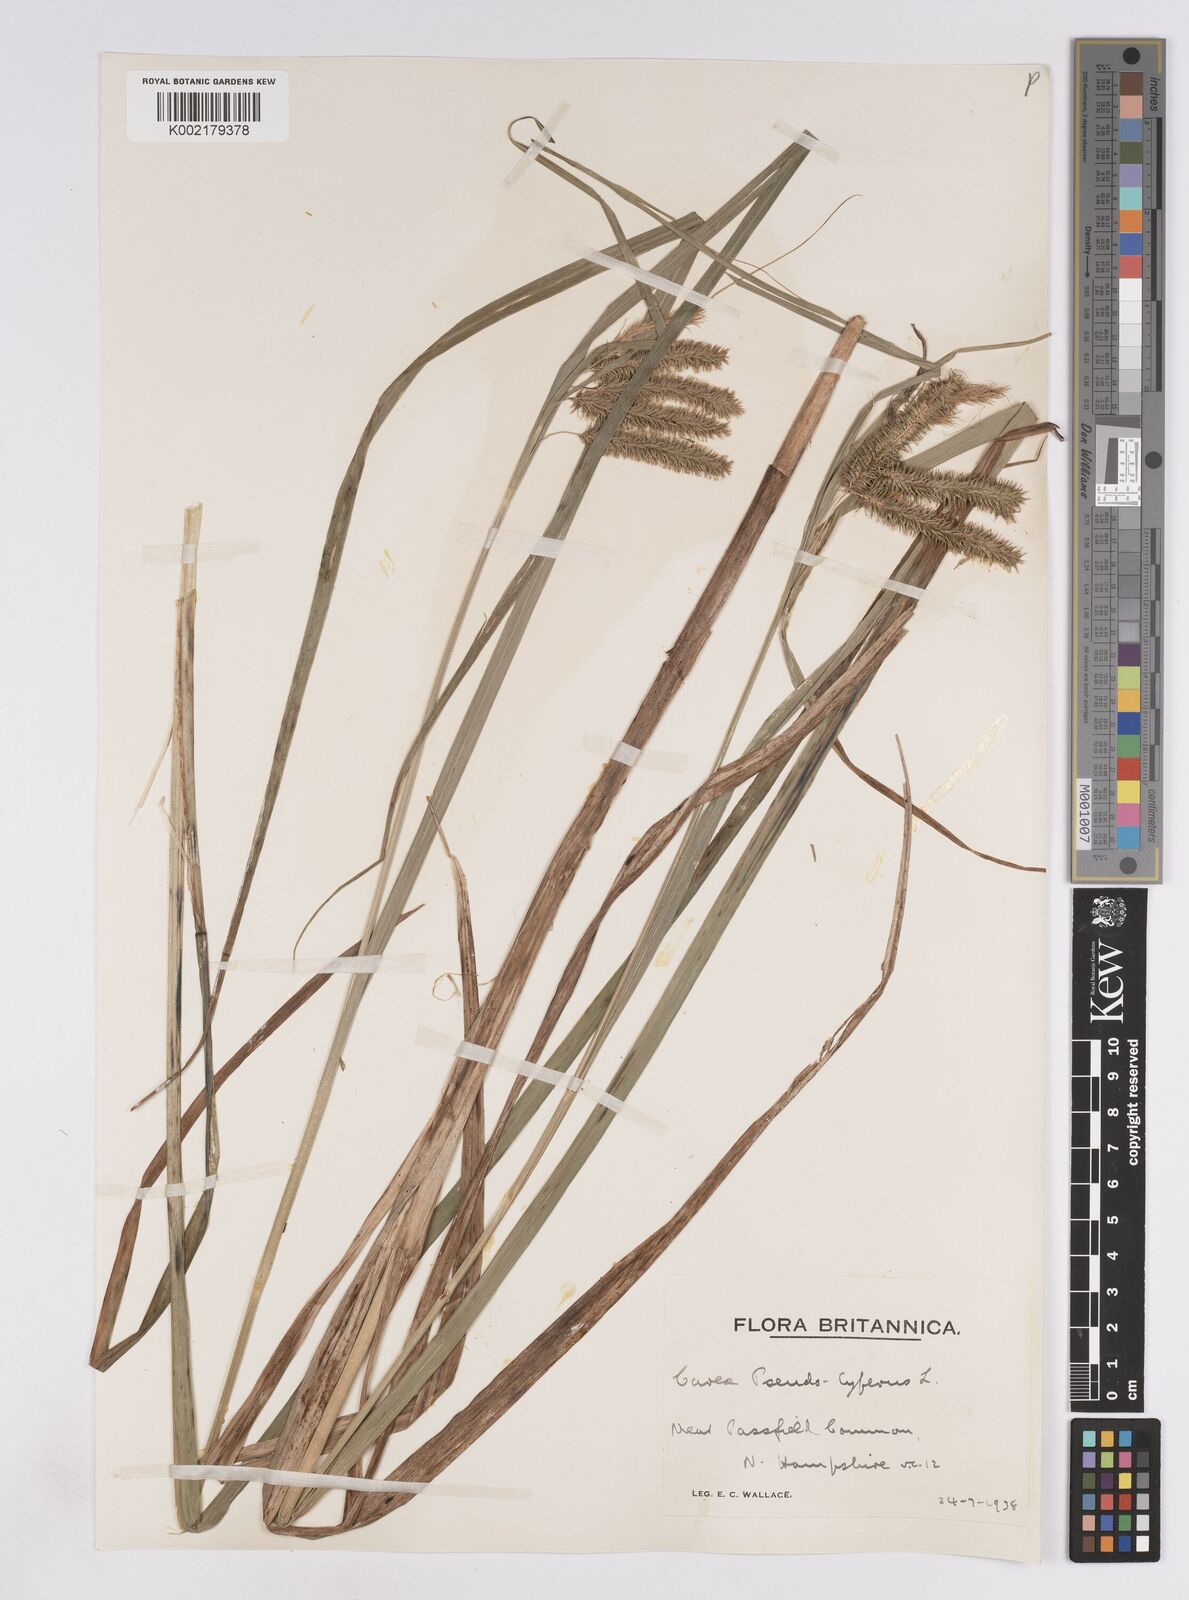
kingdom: Plantae
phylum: Tracheophyta
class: Liliopsida
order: Poales
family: Cyperaceae
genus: Carex
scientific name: Carex pseudocyperus
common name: Cyperus sedge
